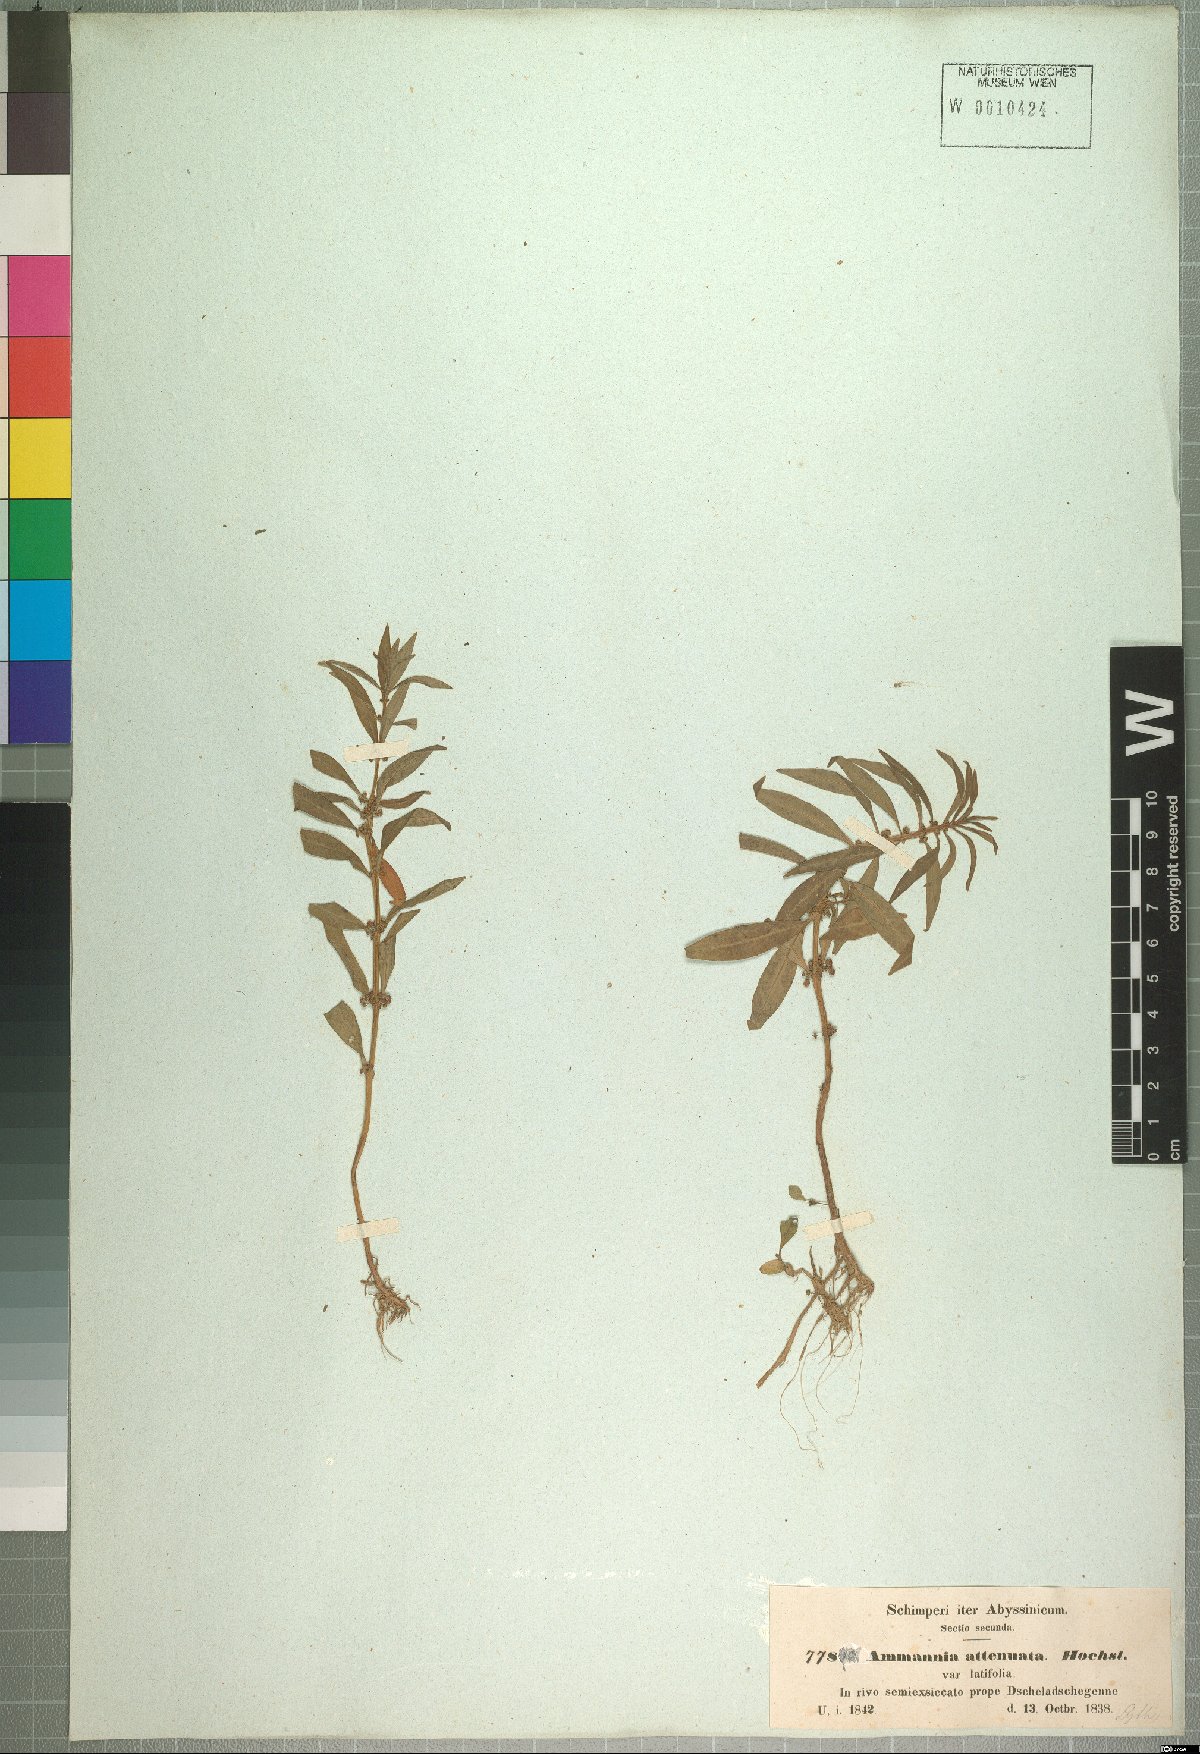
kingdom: Plantae
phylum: Tracheophyta
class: Magnoliopsida
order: Myrtales
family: Lythraceae
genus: Ammannia
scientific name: Ammannia baccifera
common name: Blistering ammania
